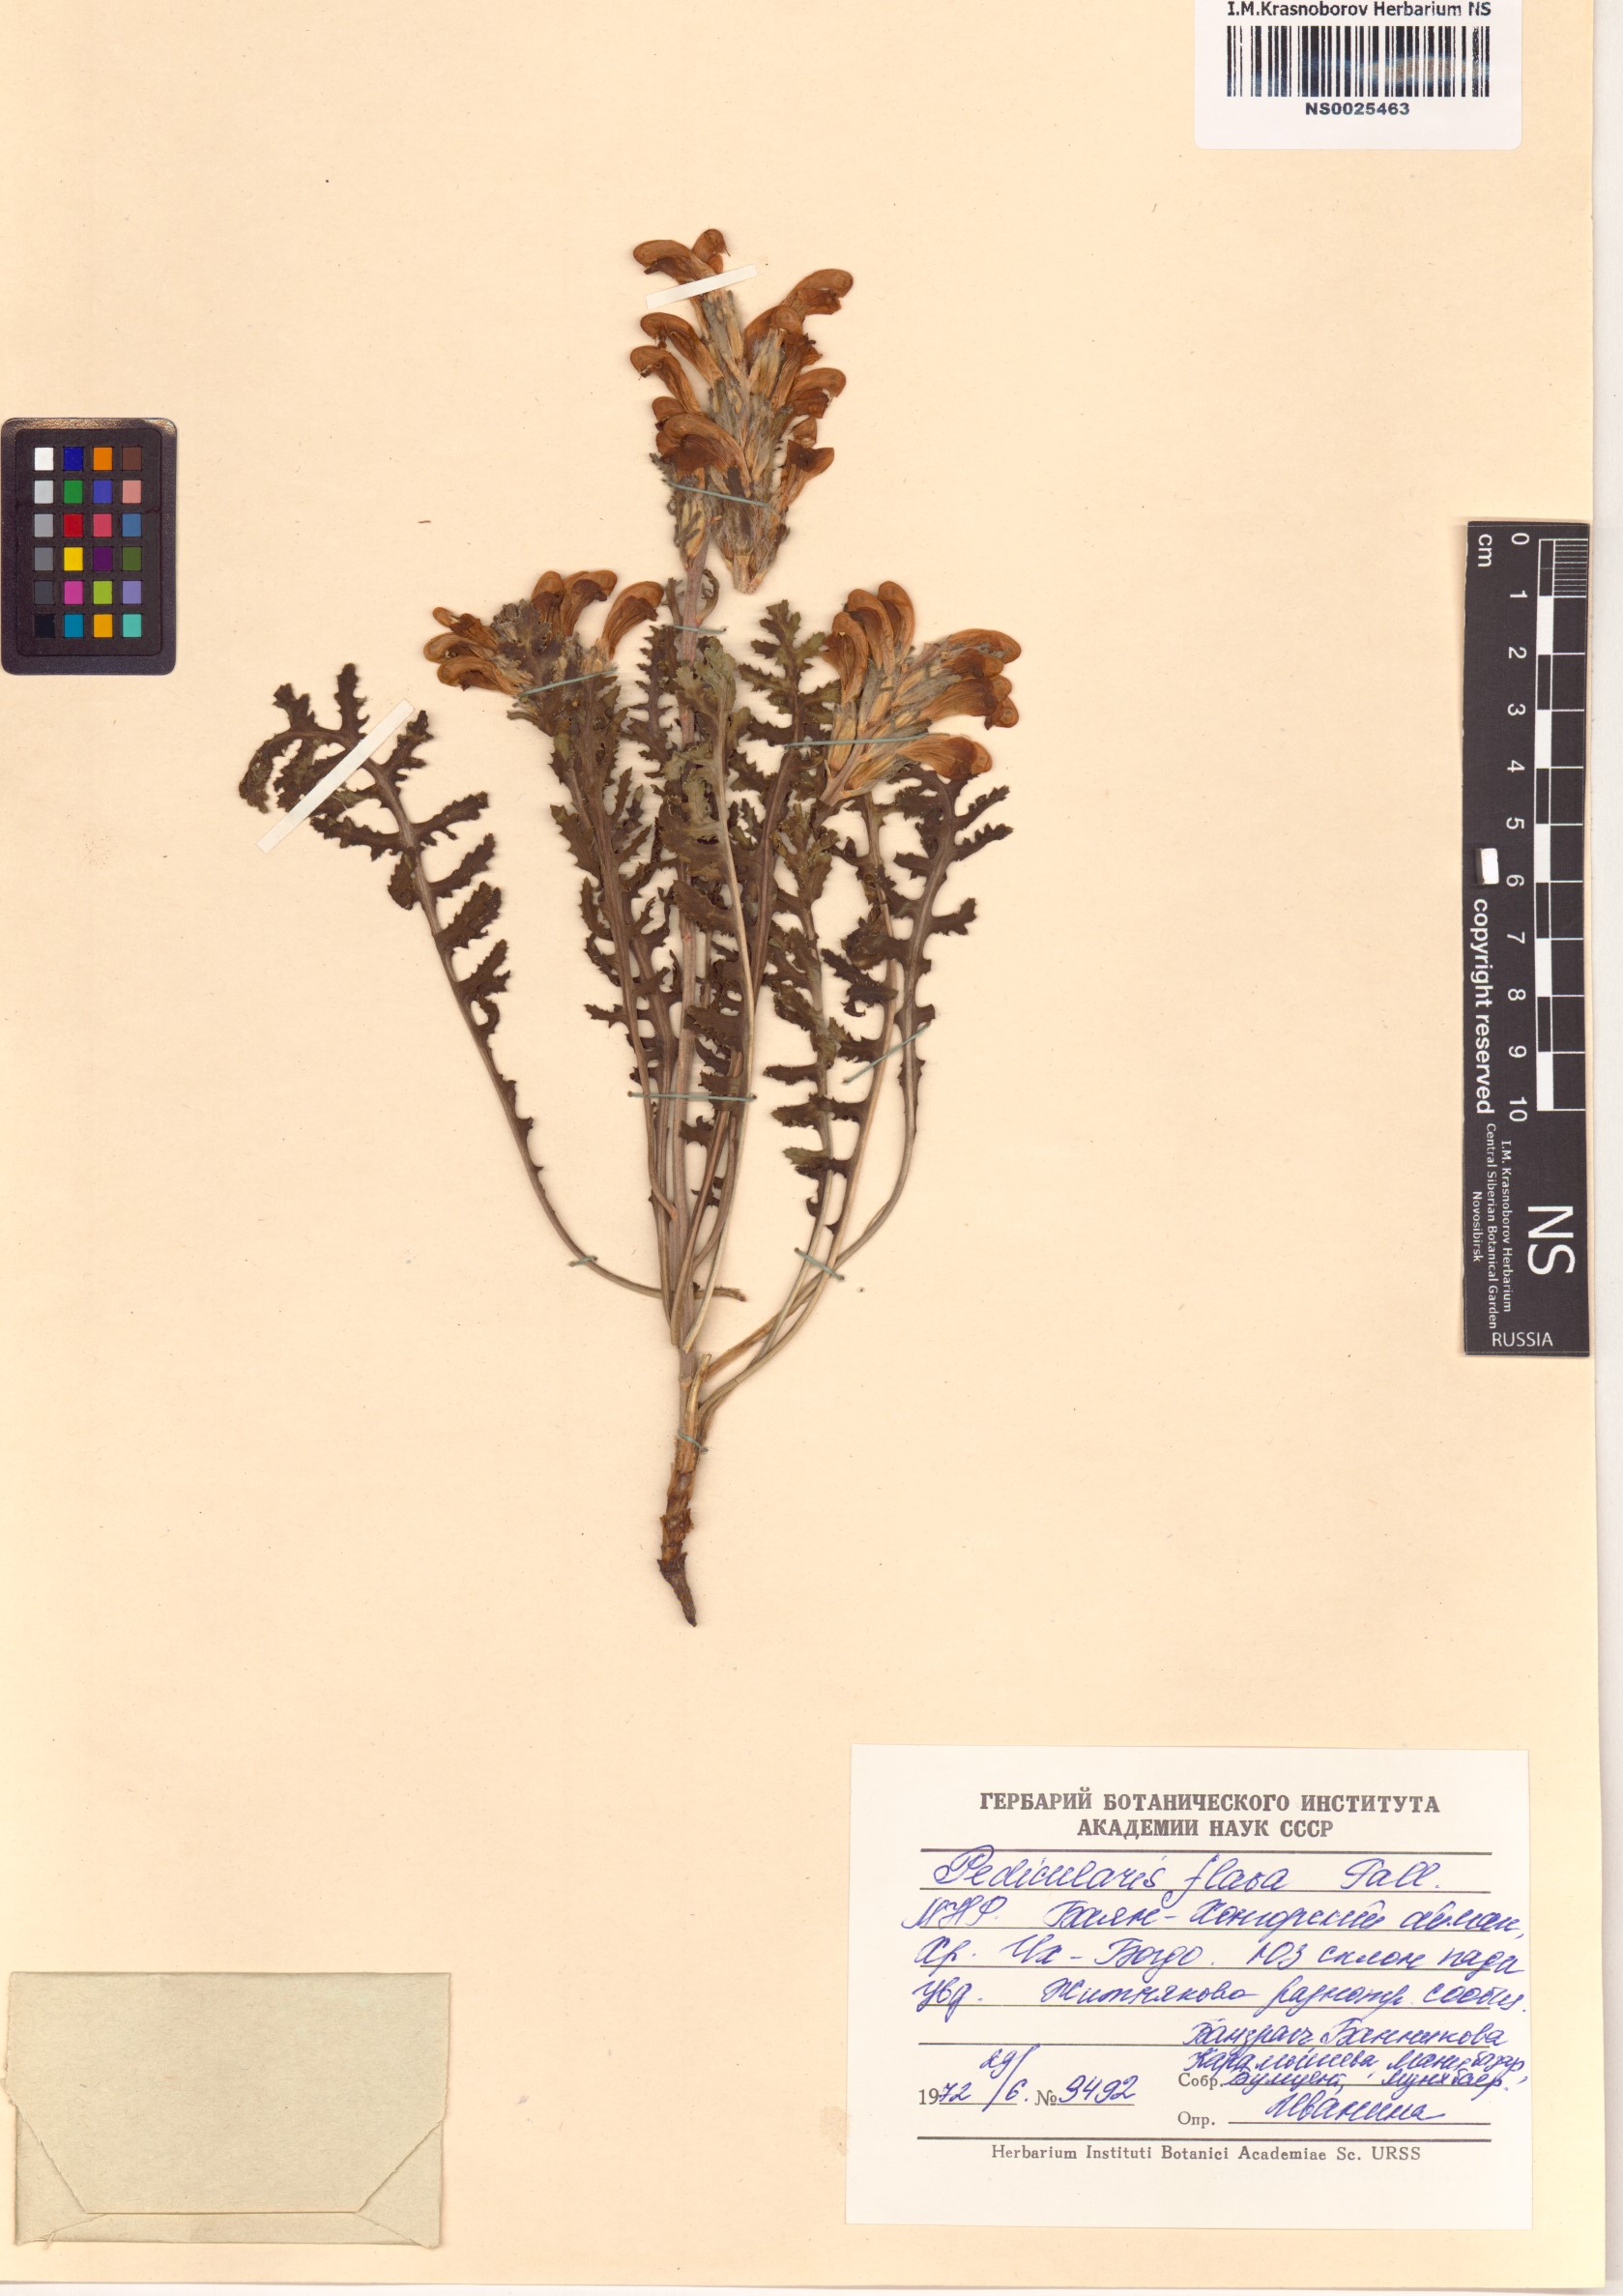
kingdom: Plantae
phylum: Tracheophyta
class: Magnoliopsida
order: Lamiales
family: Orobanchaceae
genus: Pedicularis
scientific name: Pedicularis flava
